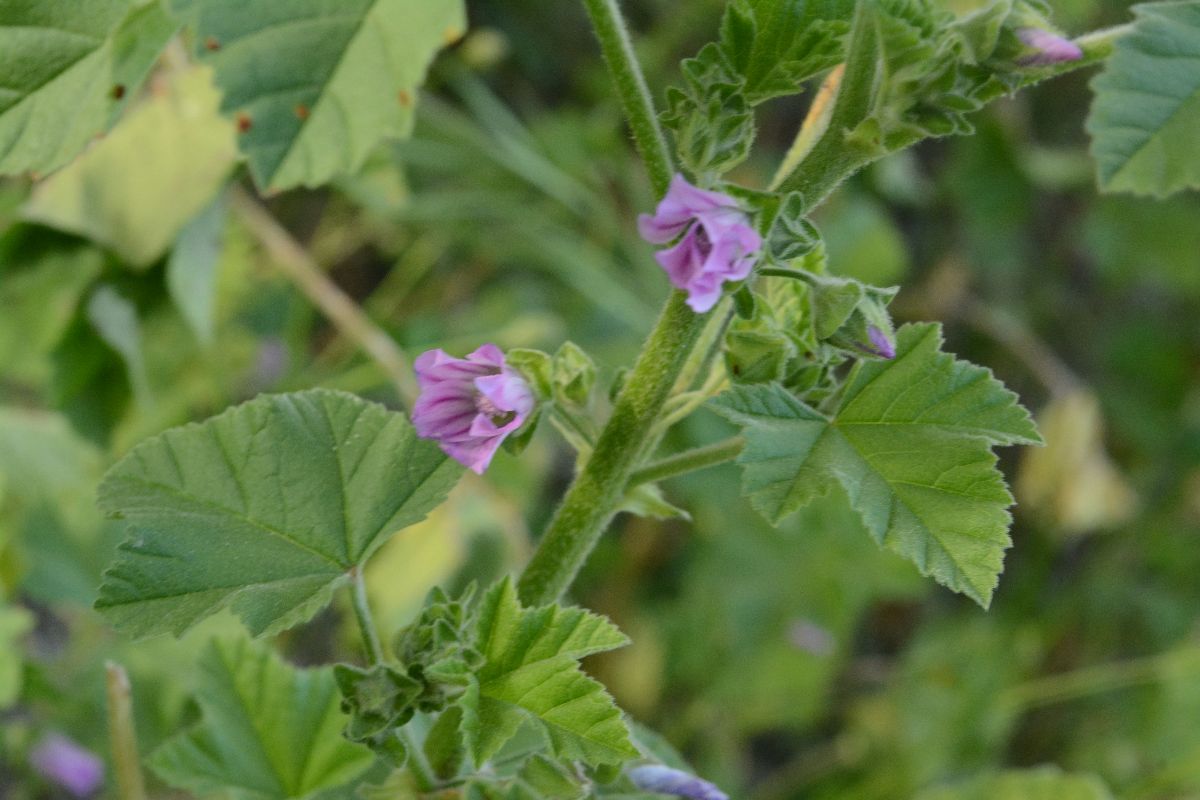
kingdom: Plantae
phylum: Tracheophyta
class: Magnoliopsida
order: Malvales
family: Malvaceae
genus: Malva
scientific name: Malva nicaeensis
